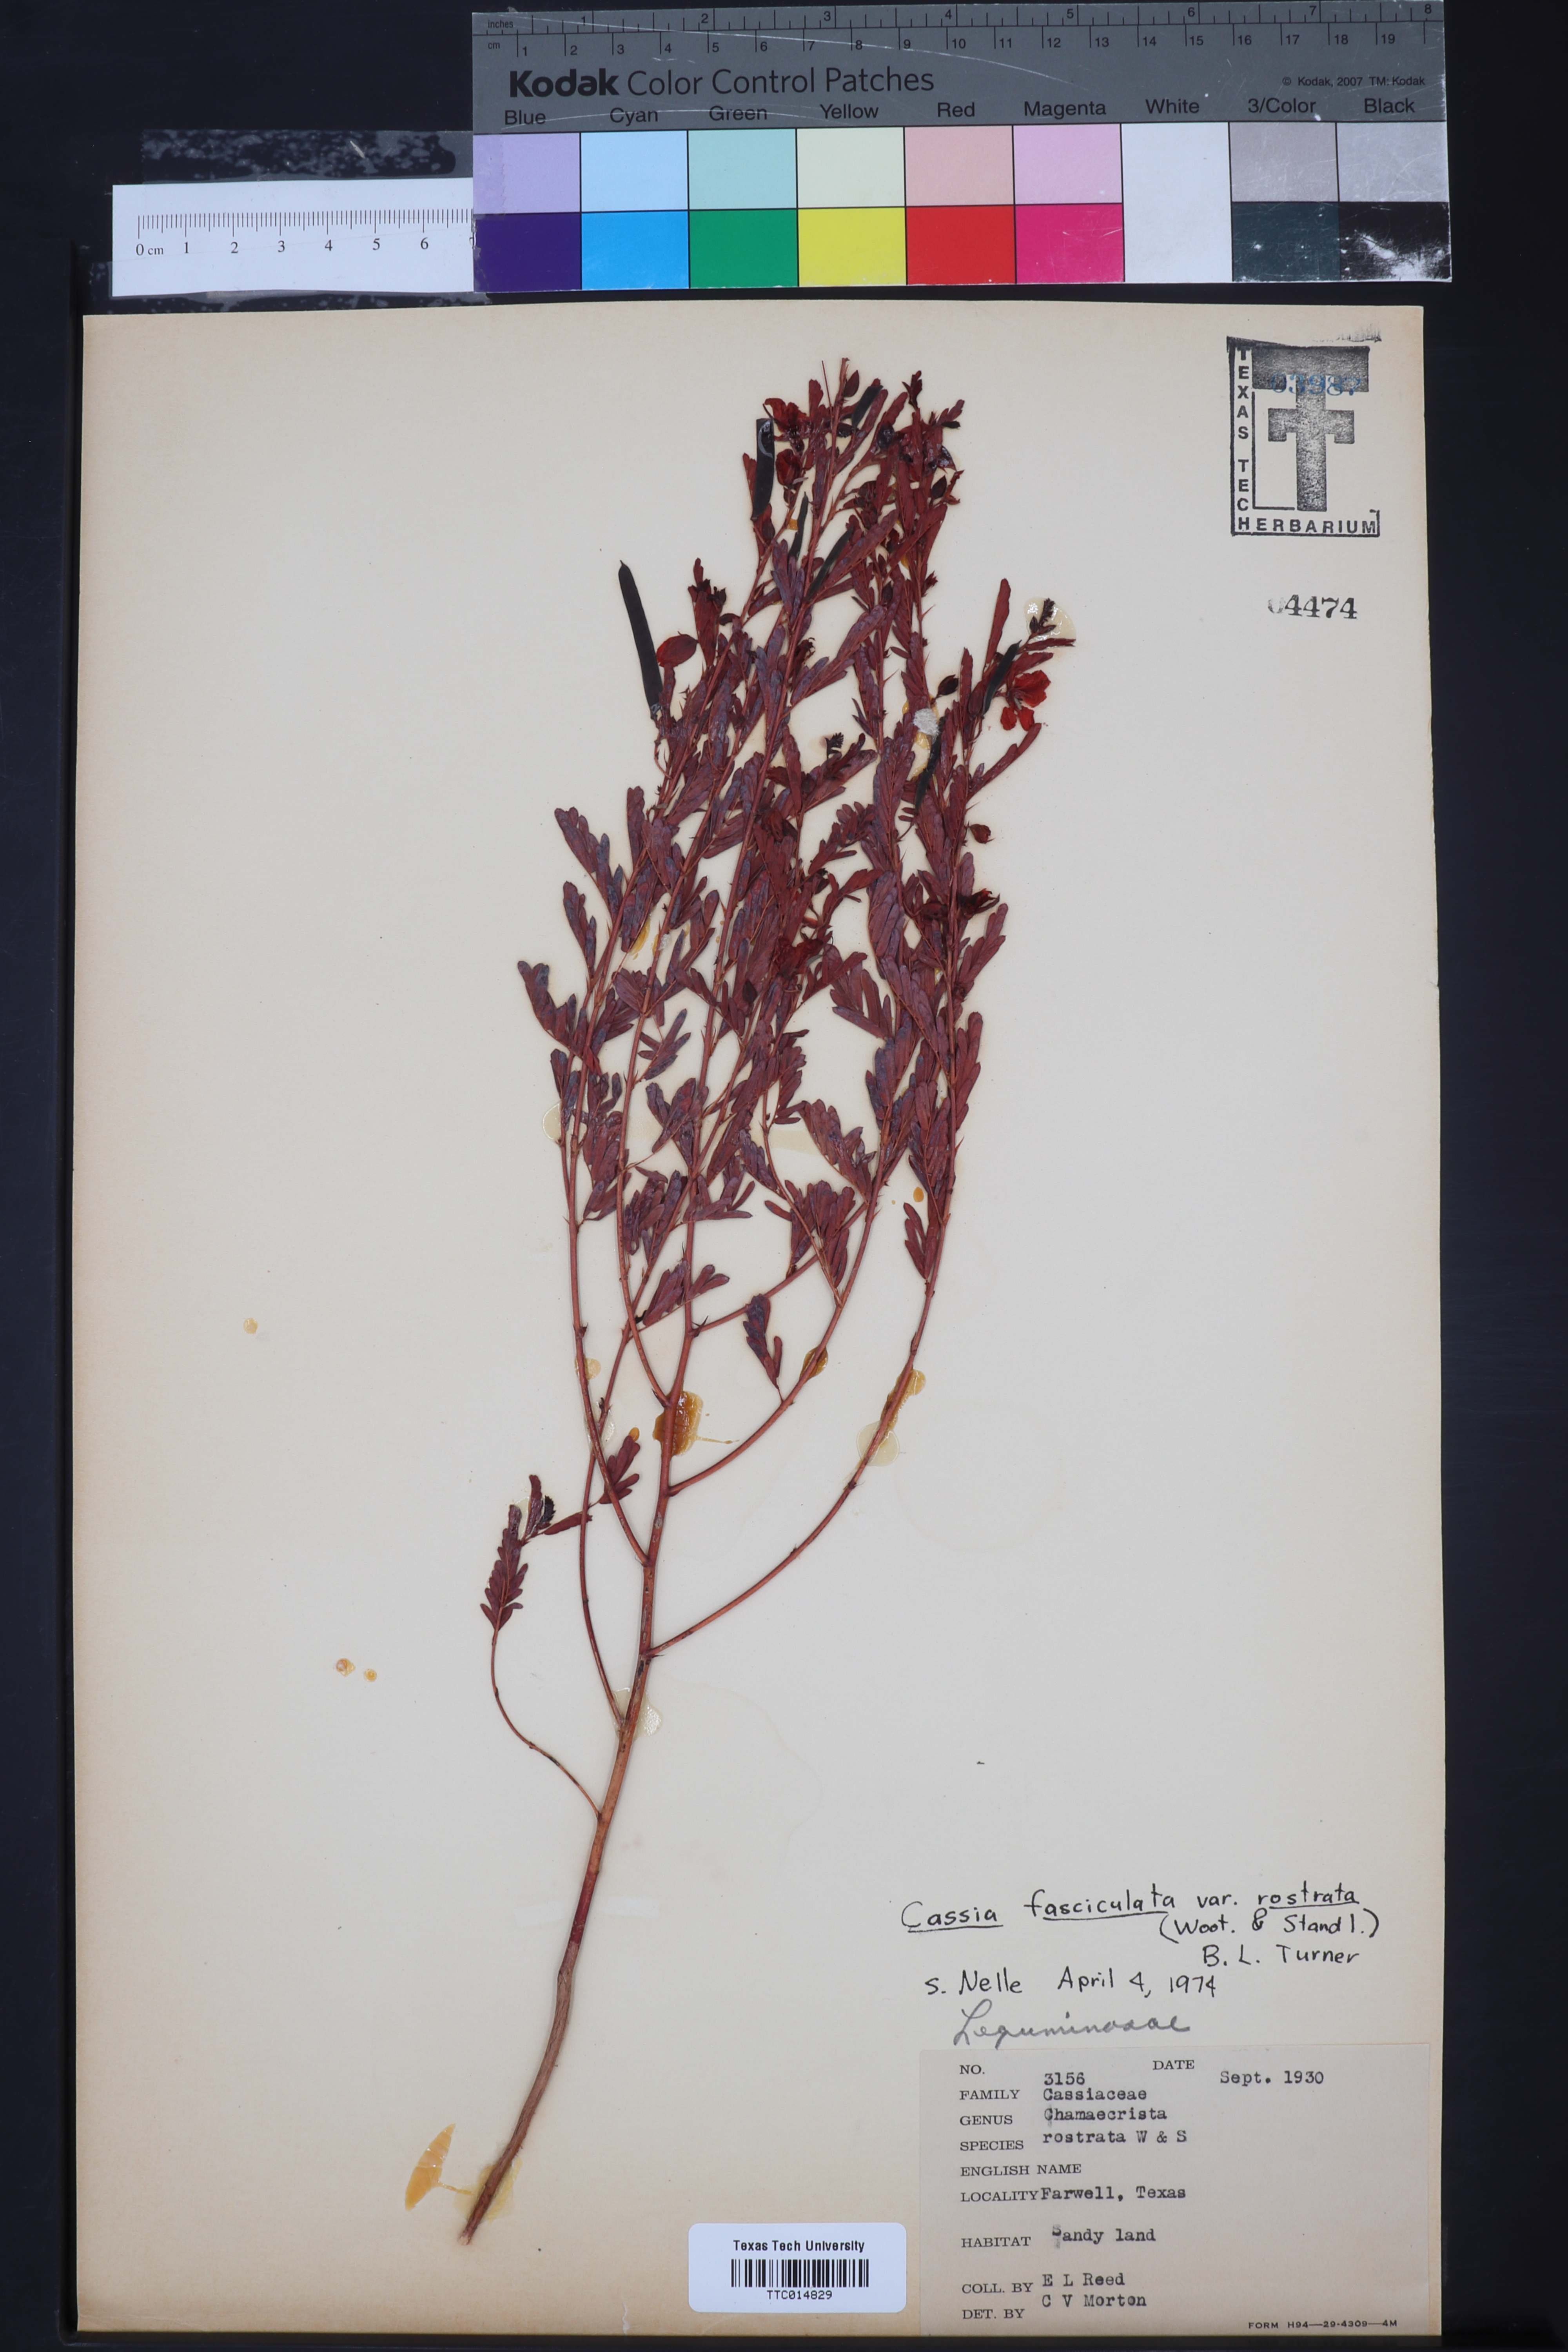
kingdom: Plantae
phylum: Tracheophyta
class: Magnoliopsida
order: Fabales
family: Fabaceae
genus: Chamaecrista
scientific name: Chamaecrista fasciculata
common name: Golden cassia
